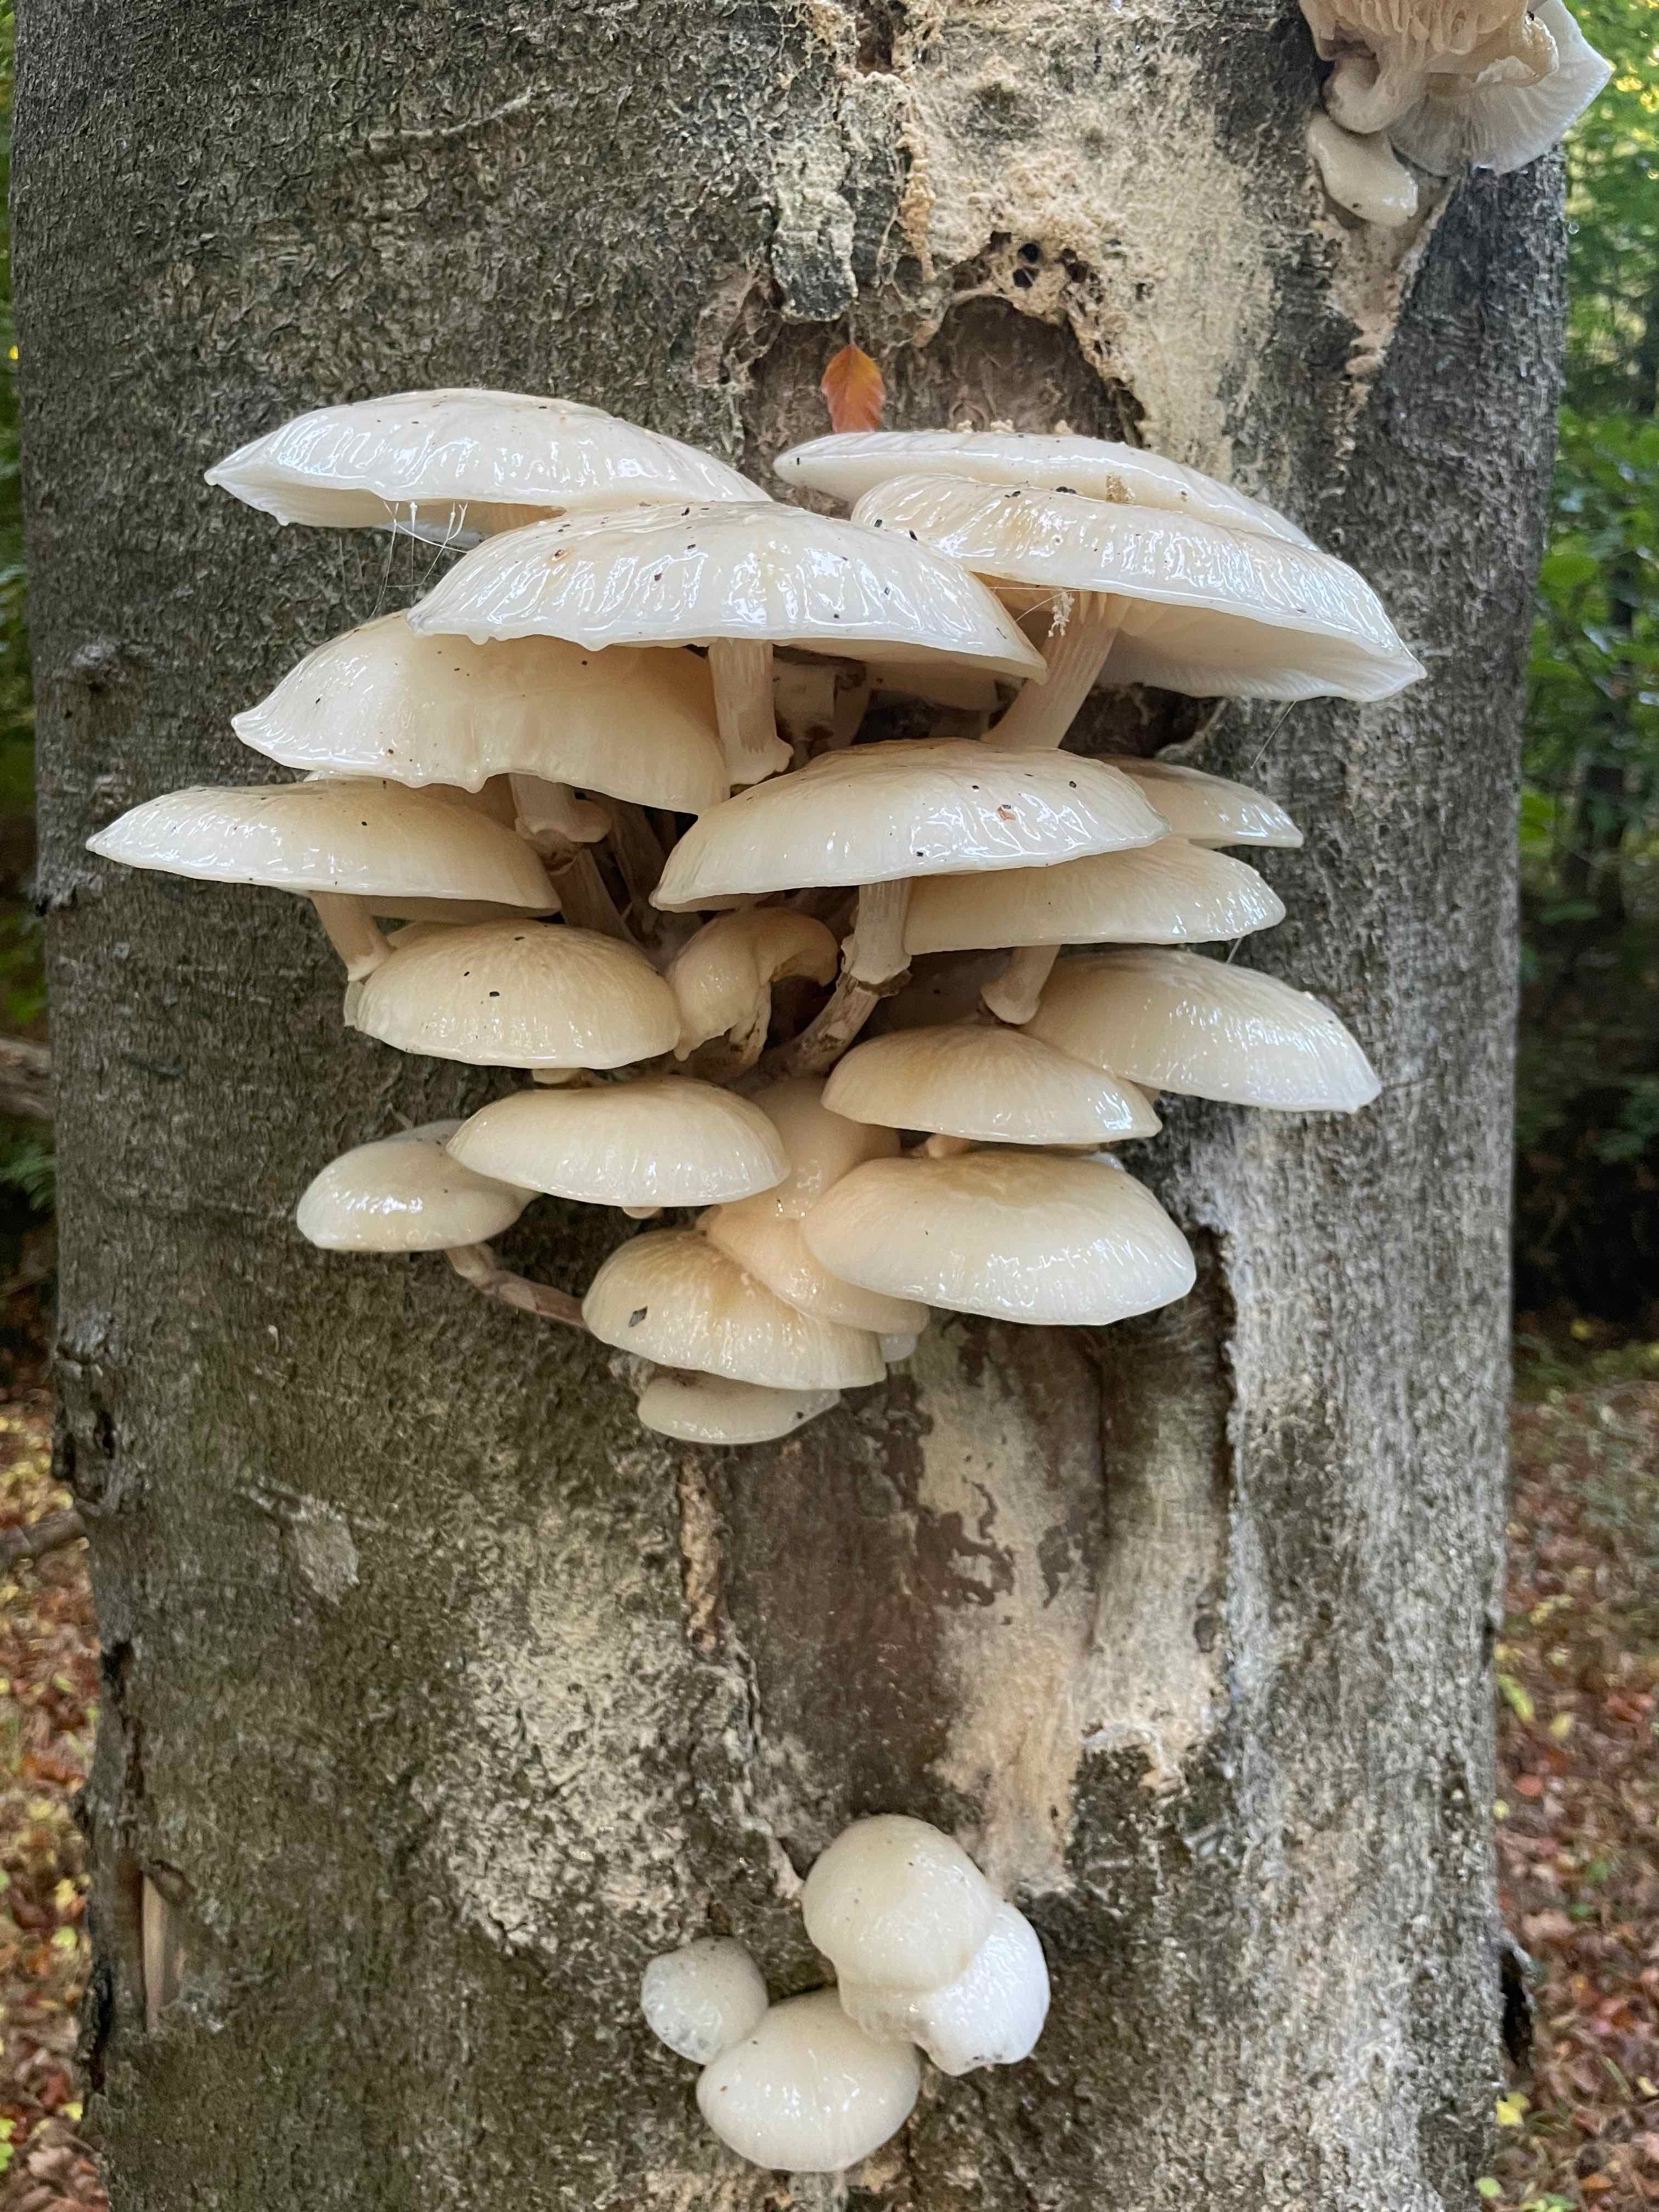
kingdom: Fungi
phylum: Basidiomycota
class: Agaricomycetes
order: Agaricales
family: Physalacriaceae
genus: Mucidula
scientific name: Mucidula mucida
